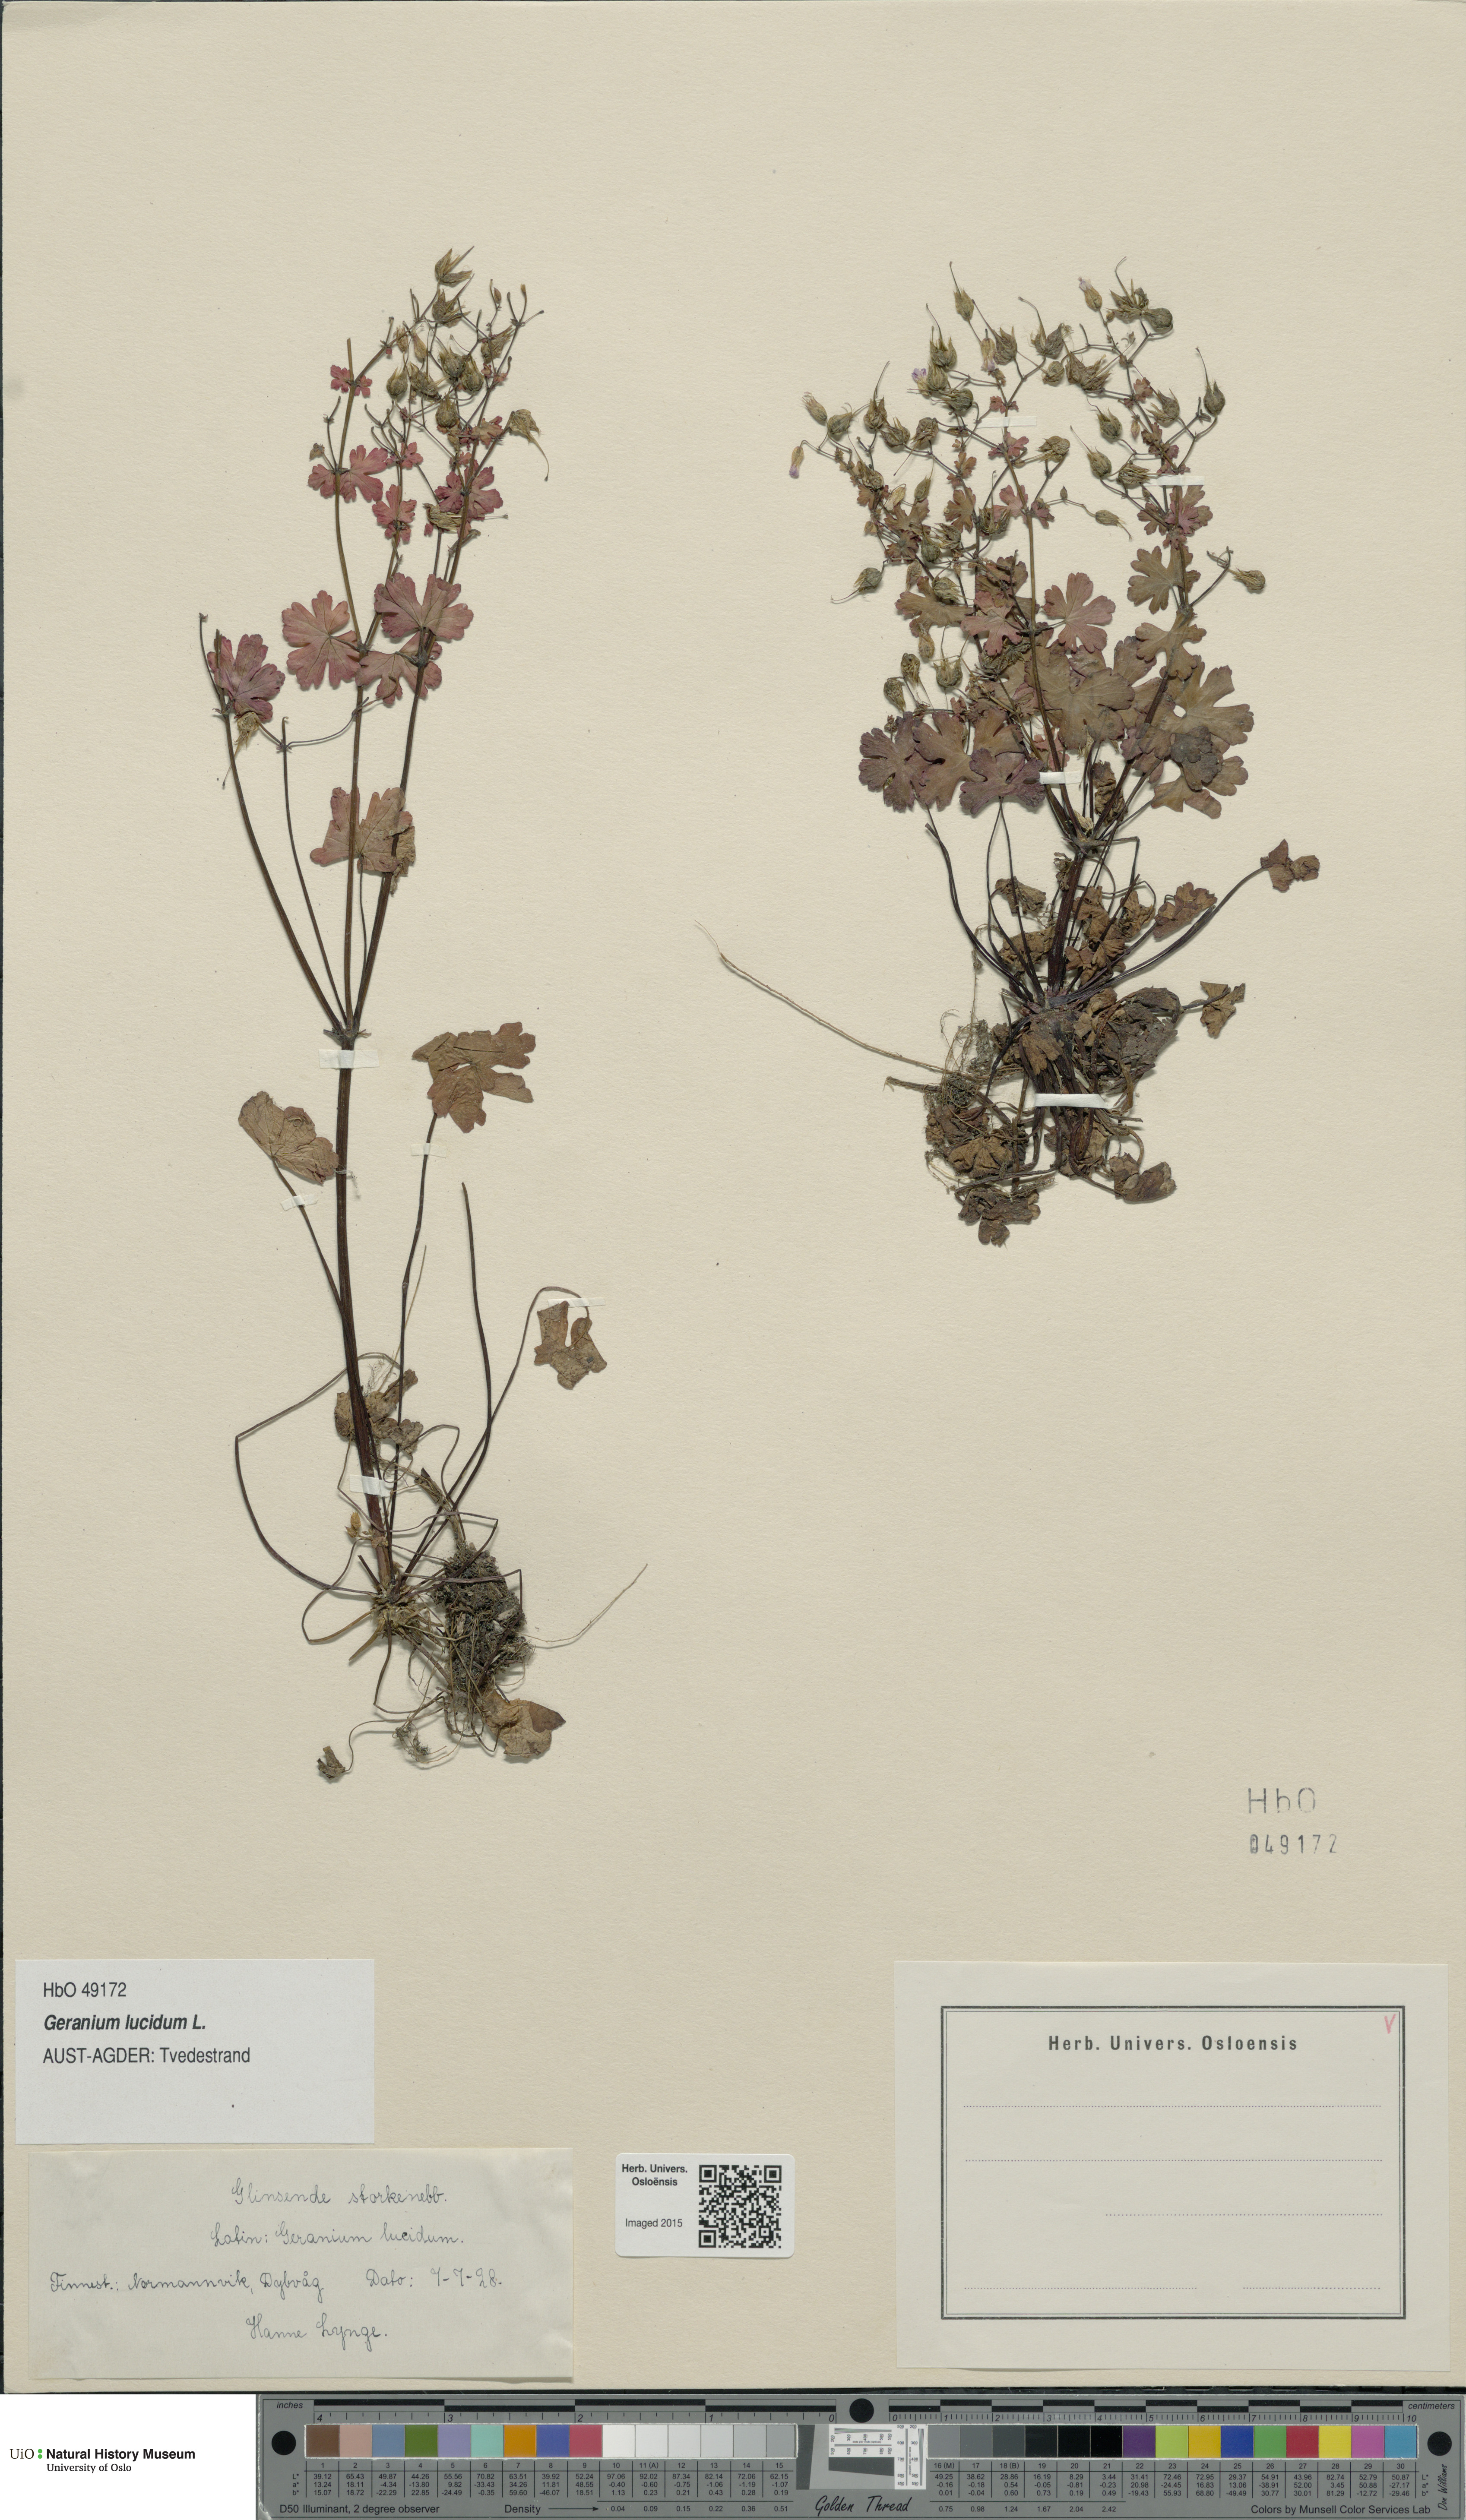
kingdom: Plantae
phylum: Tracheophyta
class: Magnoliopsida
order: Geraniales
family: Geraniaceae
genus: Geranium
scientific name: Geranium lucidum
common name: Shining crane's-bill
